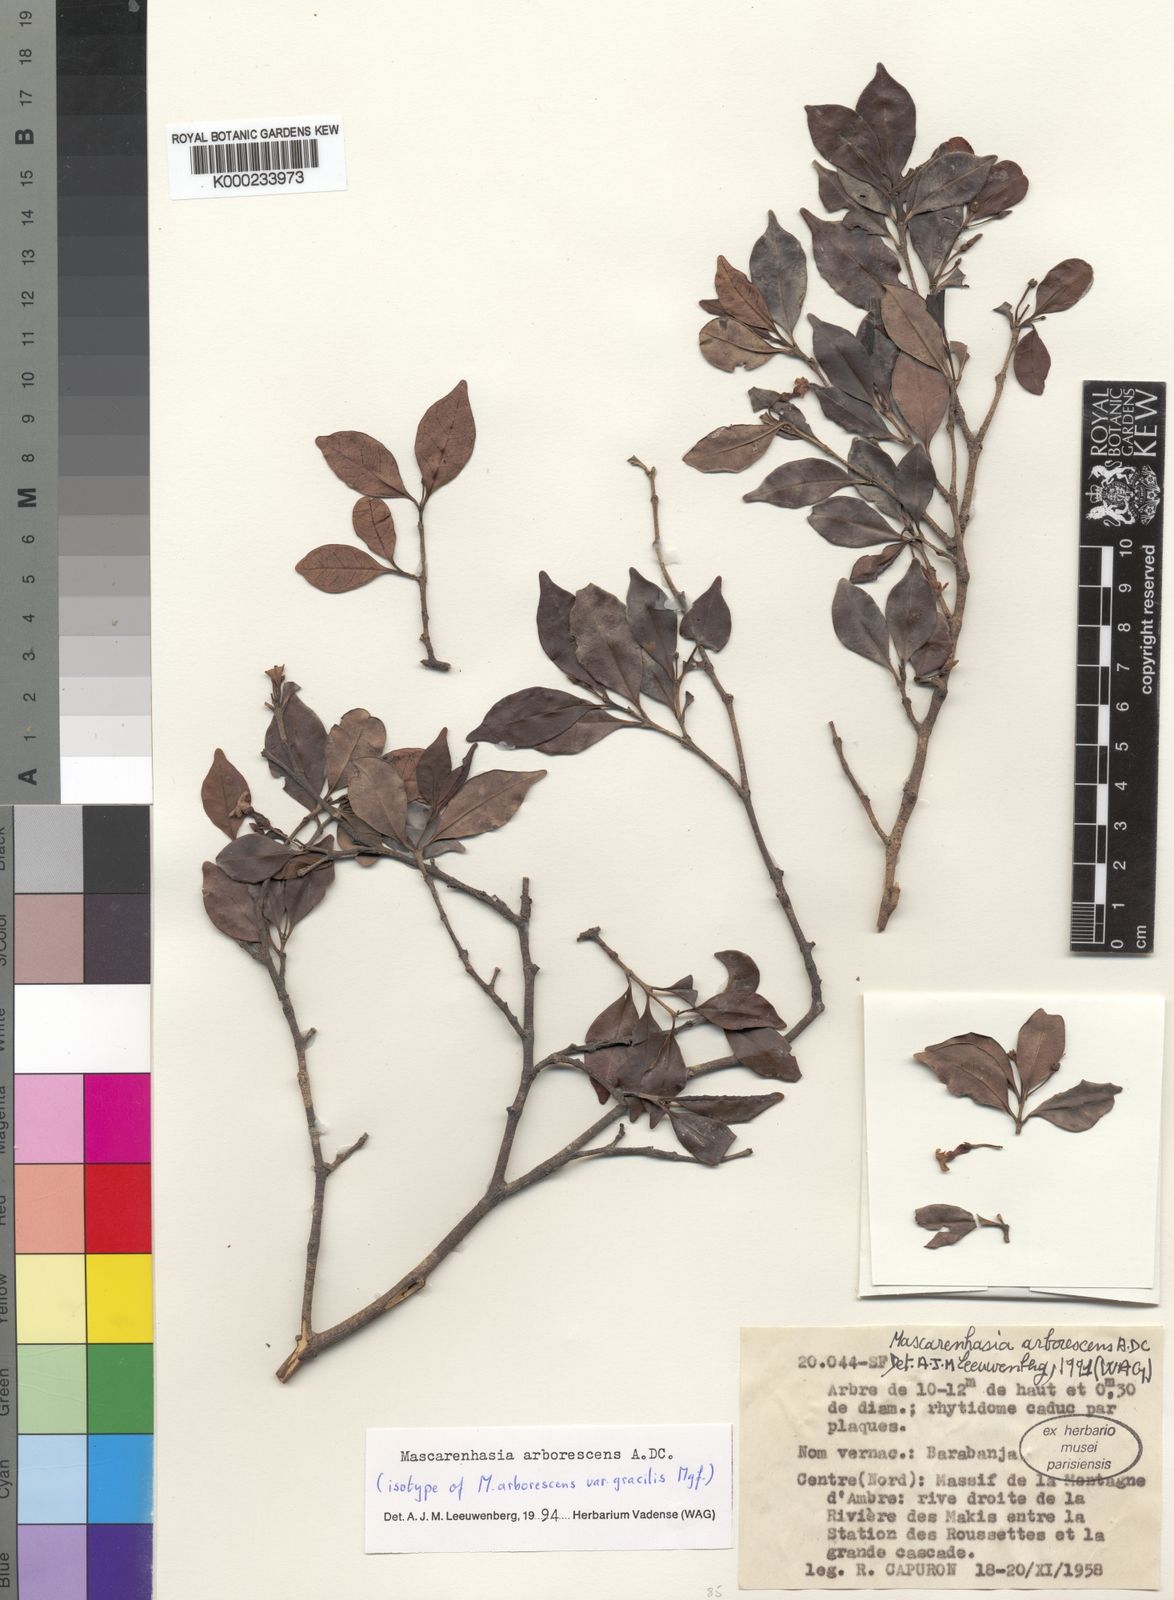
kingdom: Plantae
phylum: Tracheophyta
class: Magnoliopsida
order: Gentianales
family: Apocynaceae
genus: Mascarenhasia
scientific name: Mascarenhasia arborescens
